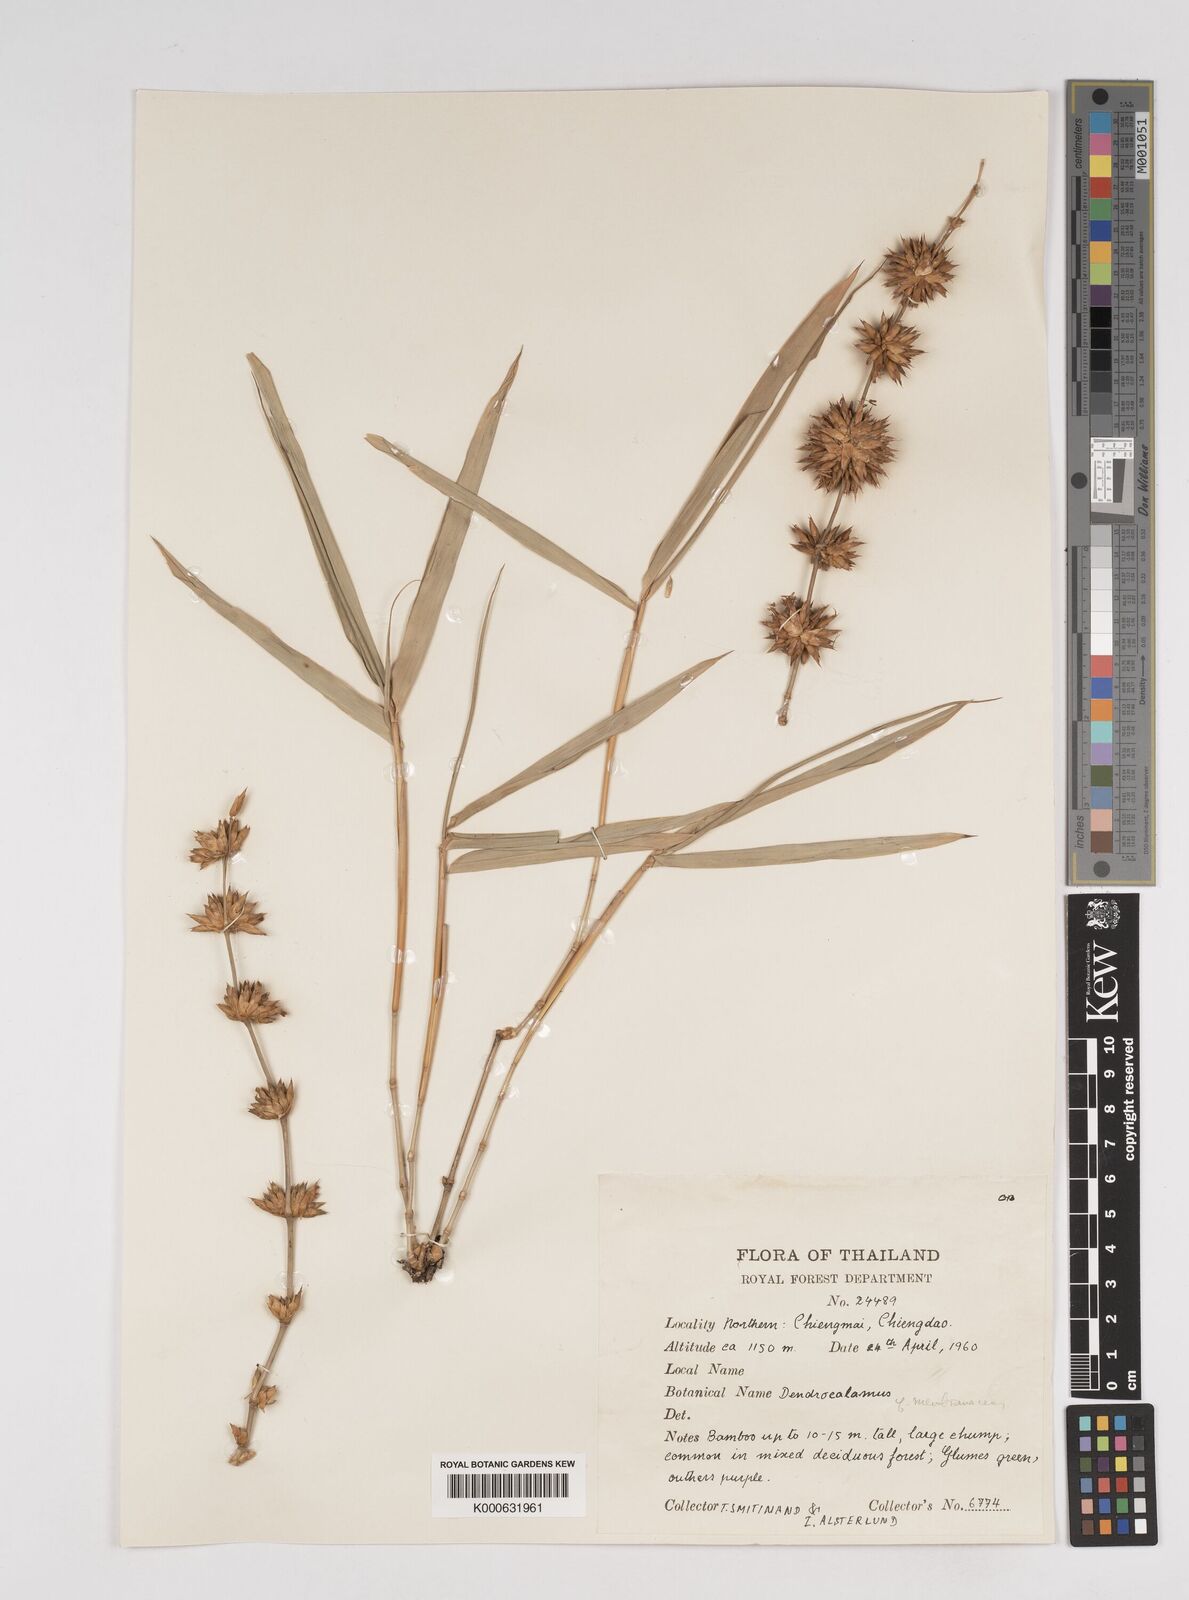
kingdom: Plantae
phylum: Tracheophyta
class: Liliopsida
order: Poales
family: Poaceae
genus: Dendrocalamus
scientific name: Dendrocalamus membranaceus
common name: White bamboo
